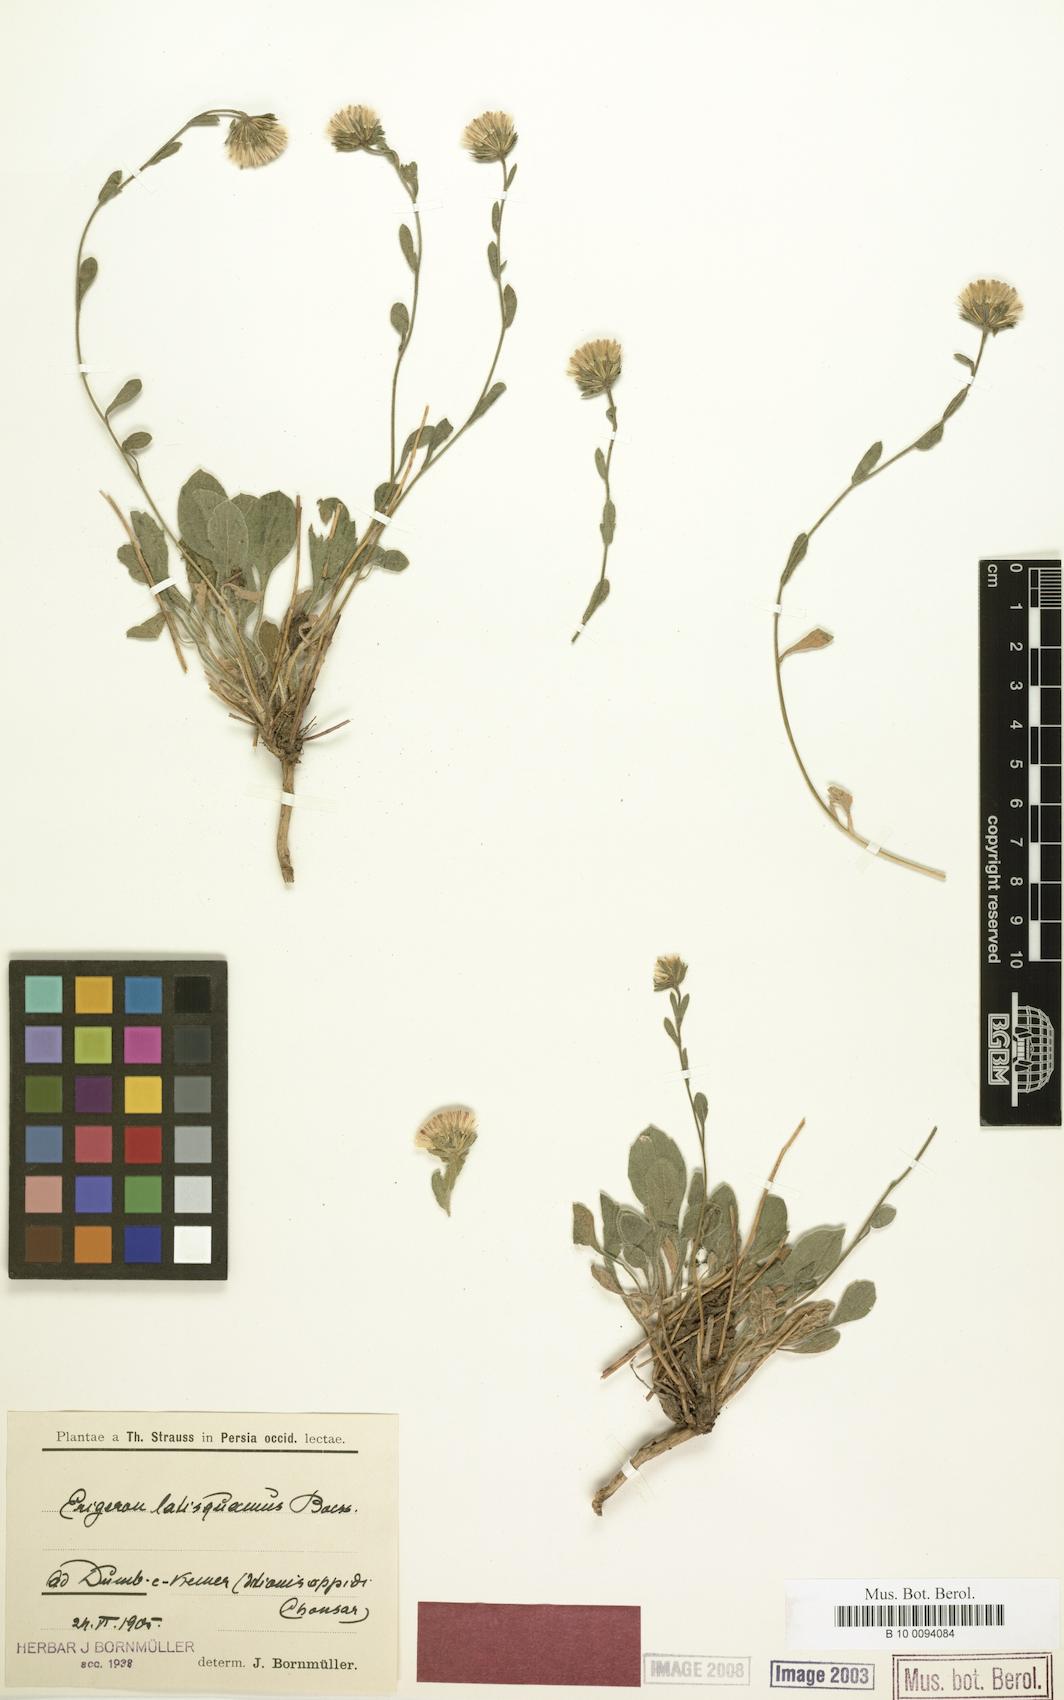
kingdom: Plantae
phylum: Tracheophyta
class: Magnoliopsida
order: Asterales
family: Asteraceae
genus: Symphyotrichum
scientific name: Symphyotrichum ciliatum
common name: Rayless annual aster
